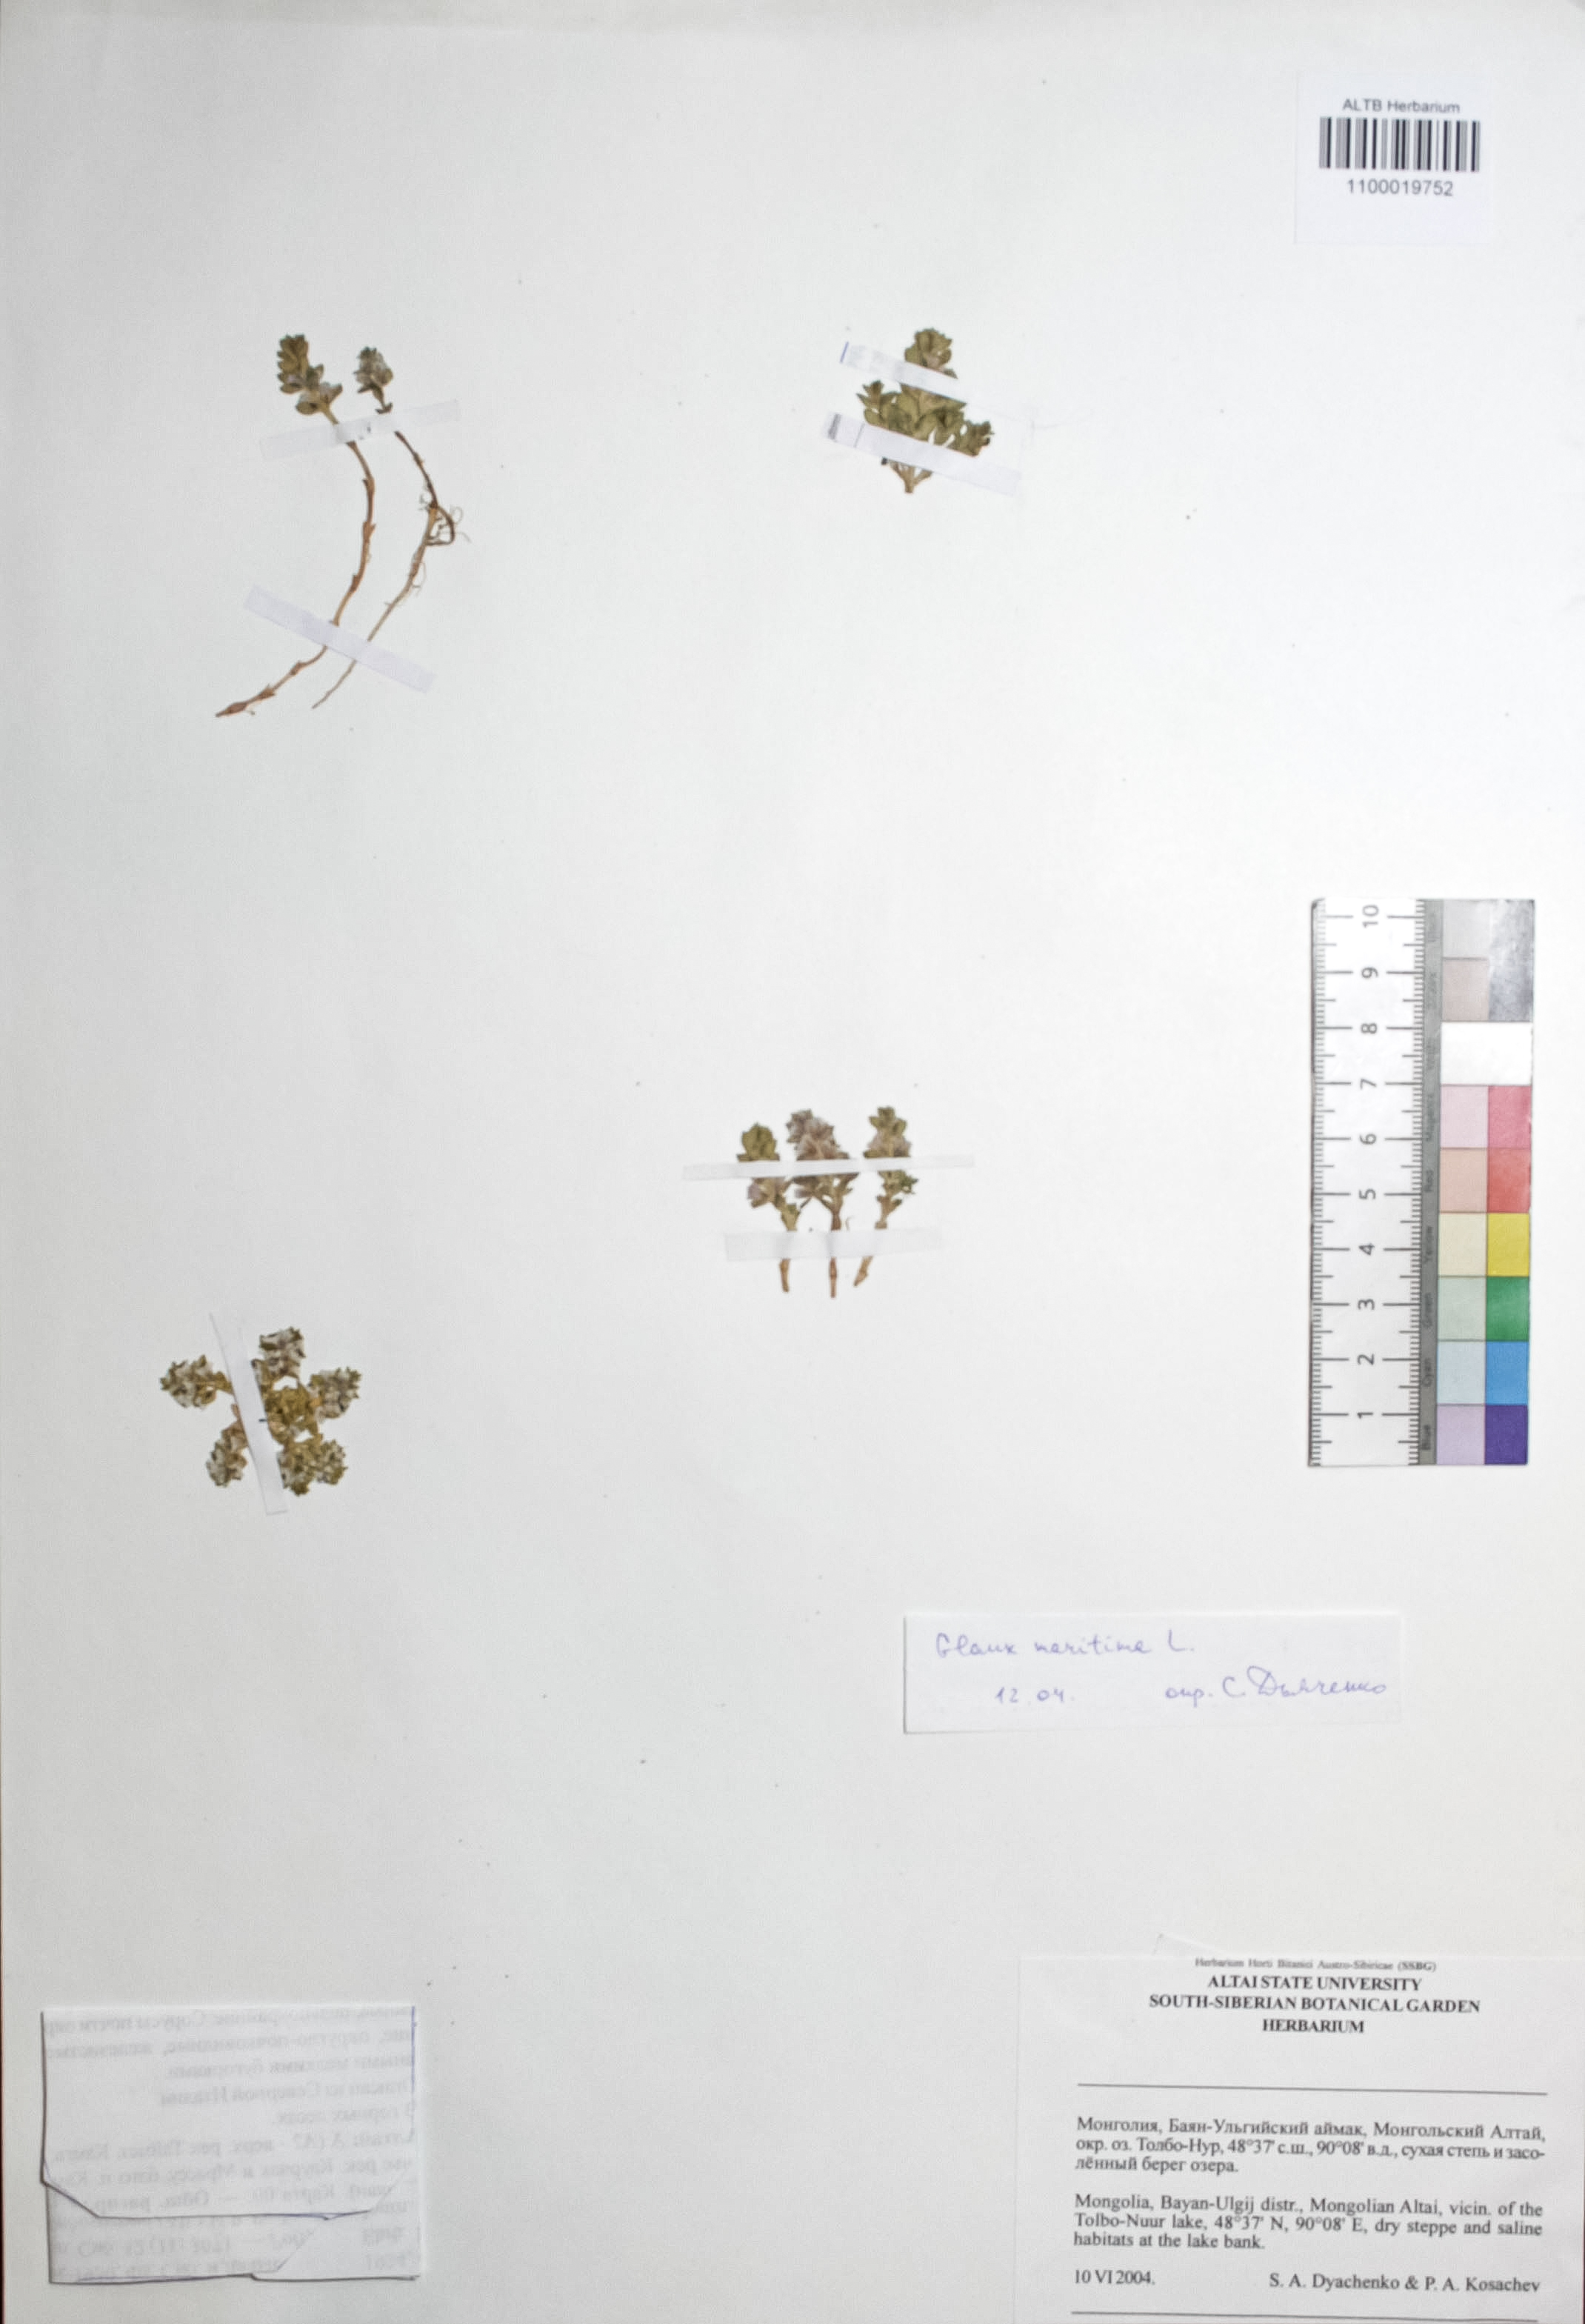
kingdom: Plantae
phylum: Tracheophyta
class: Magnoliopsida
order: Ericales
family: Primulaceae
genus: Lysimachia
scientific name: Lysimachia maritima
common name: Sea milkwort
